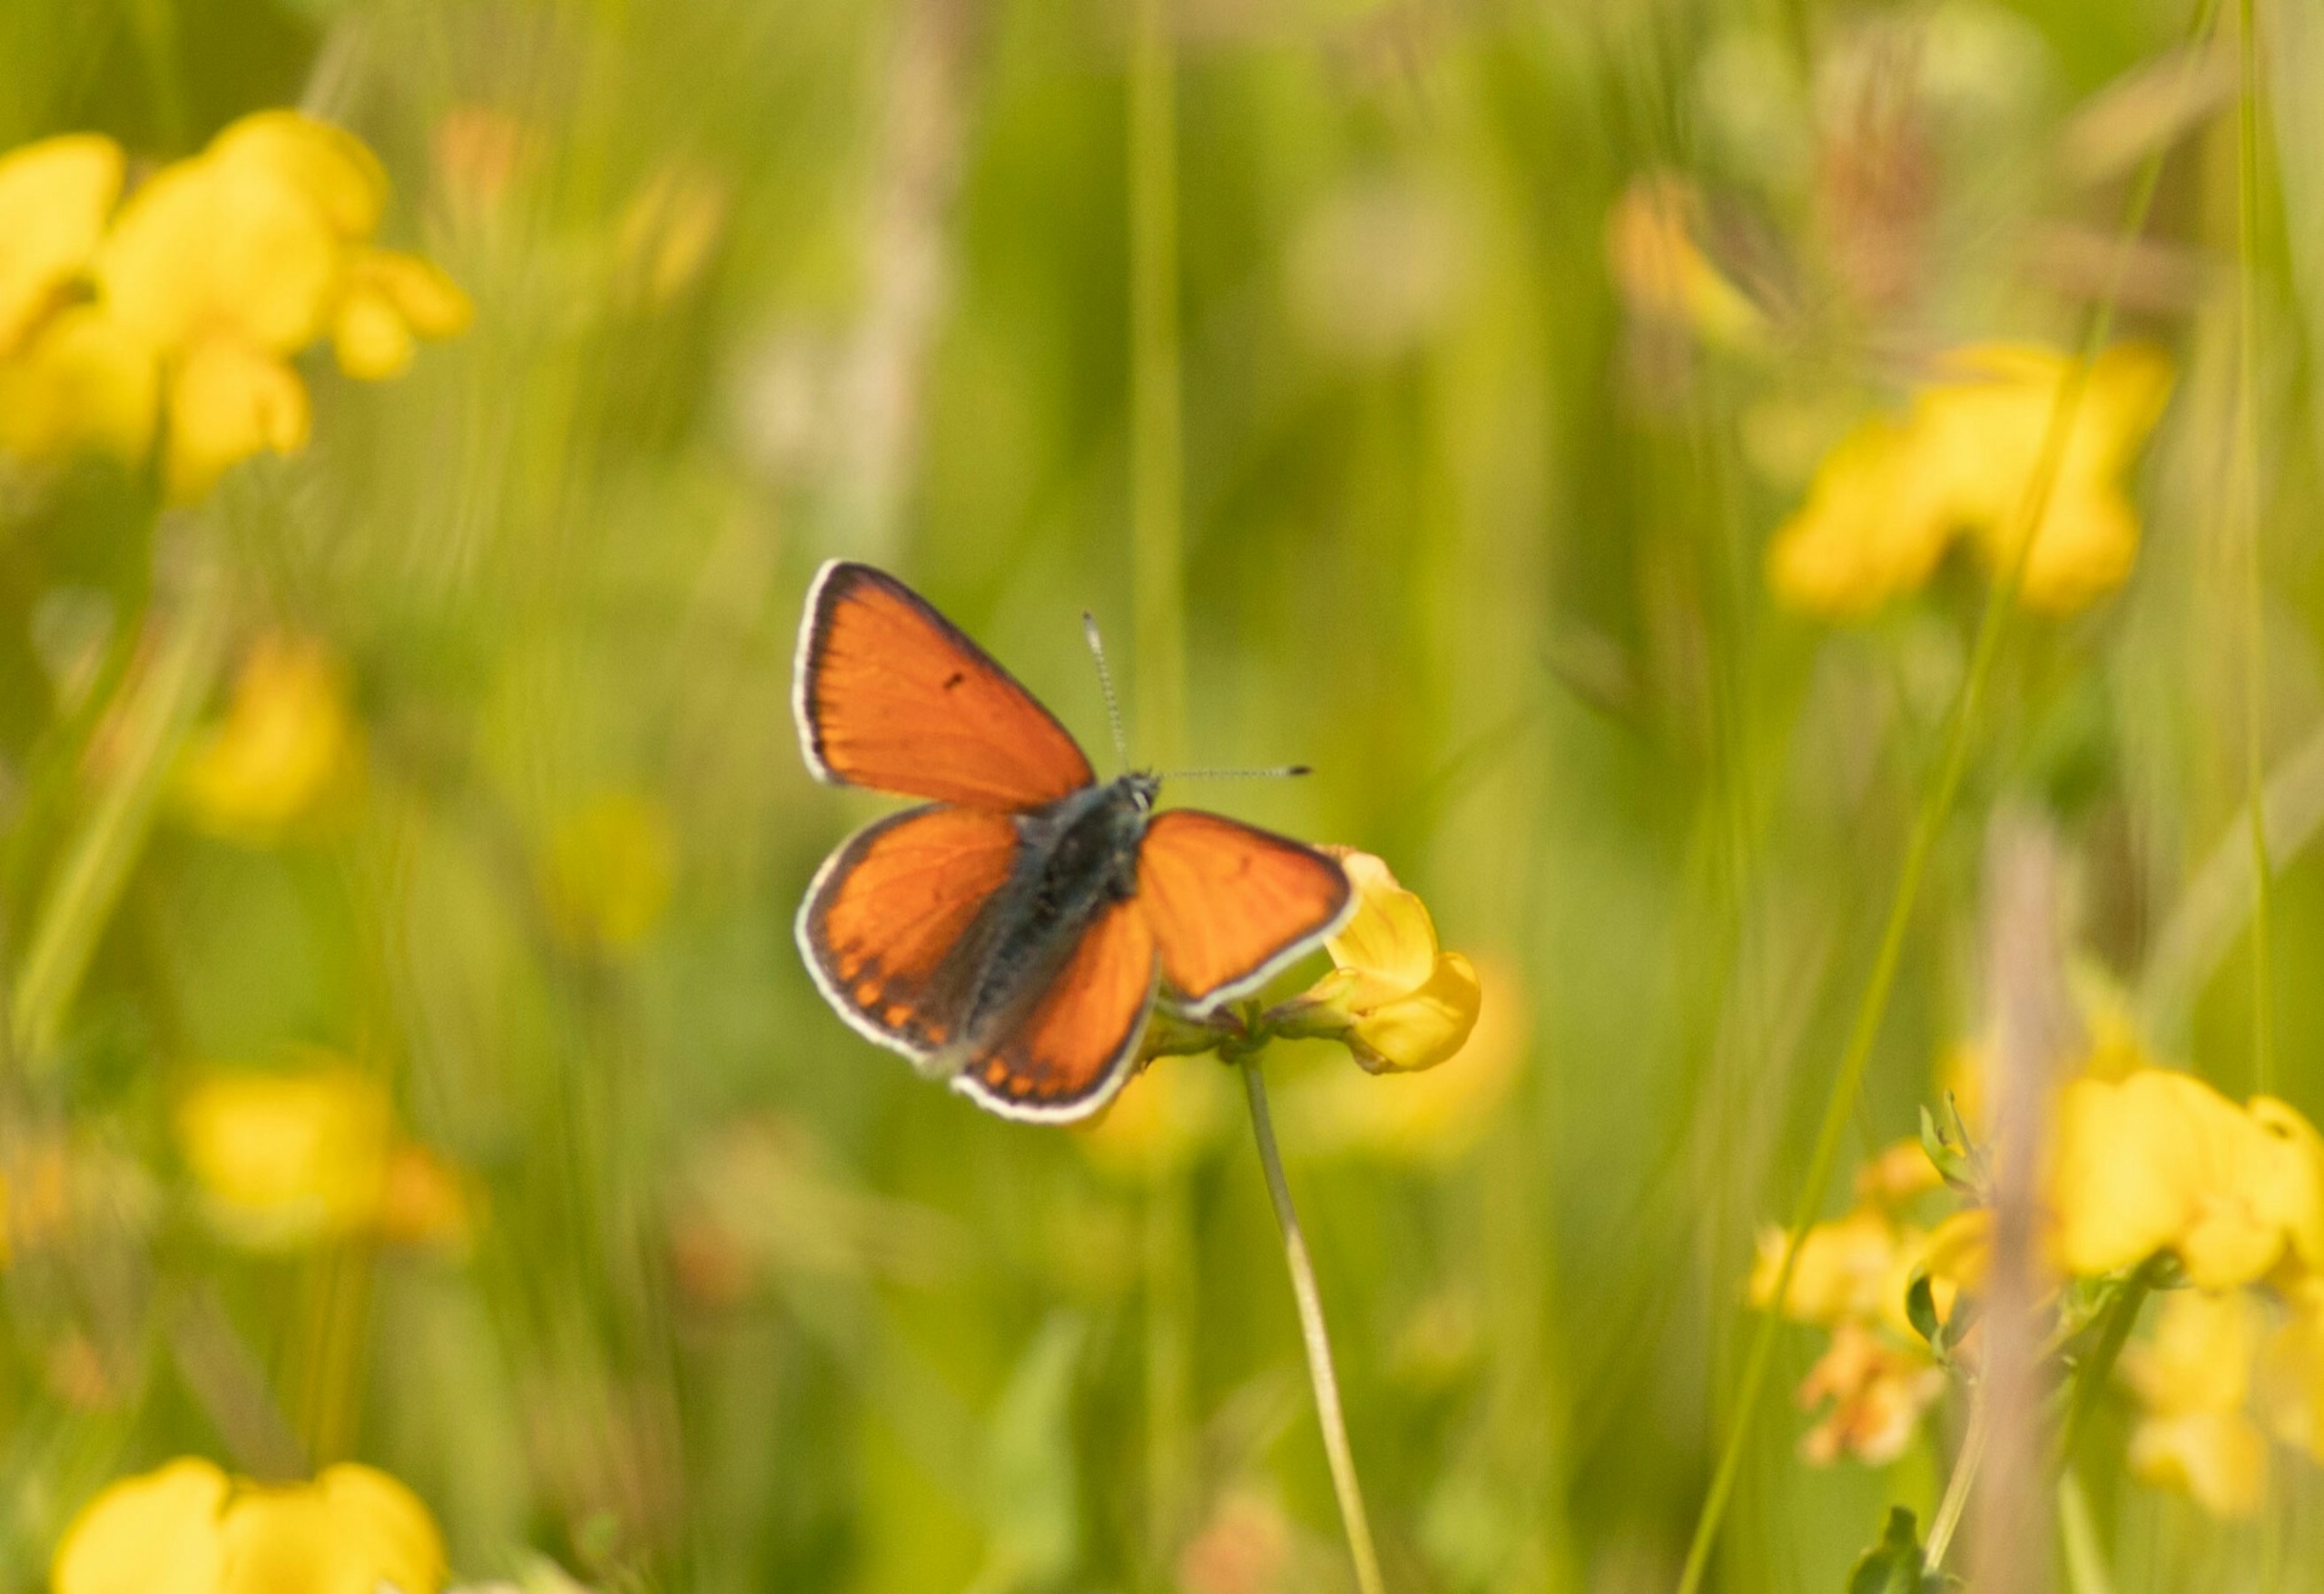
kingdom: Animalia
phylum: Arthropoda
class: Insecta
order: Lepidoptera
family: Lycaenidae
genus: Palaeochrysophanus
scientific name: Palaeochrysophanus hippothoe
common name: Violetrandet ildfugl
